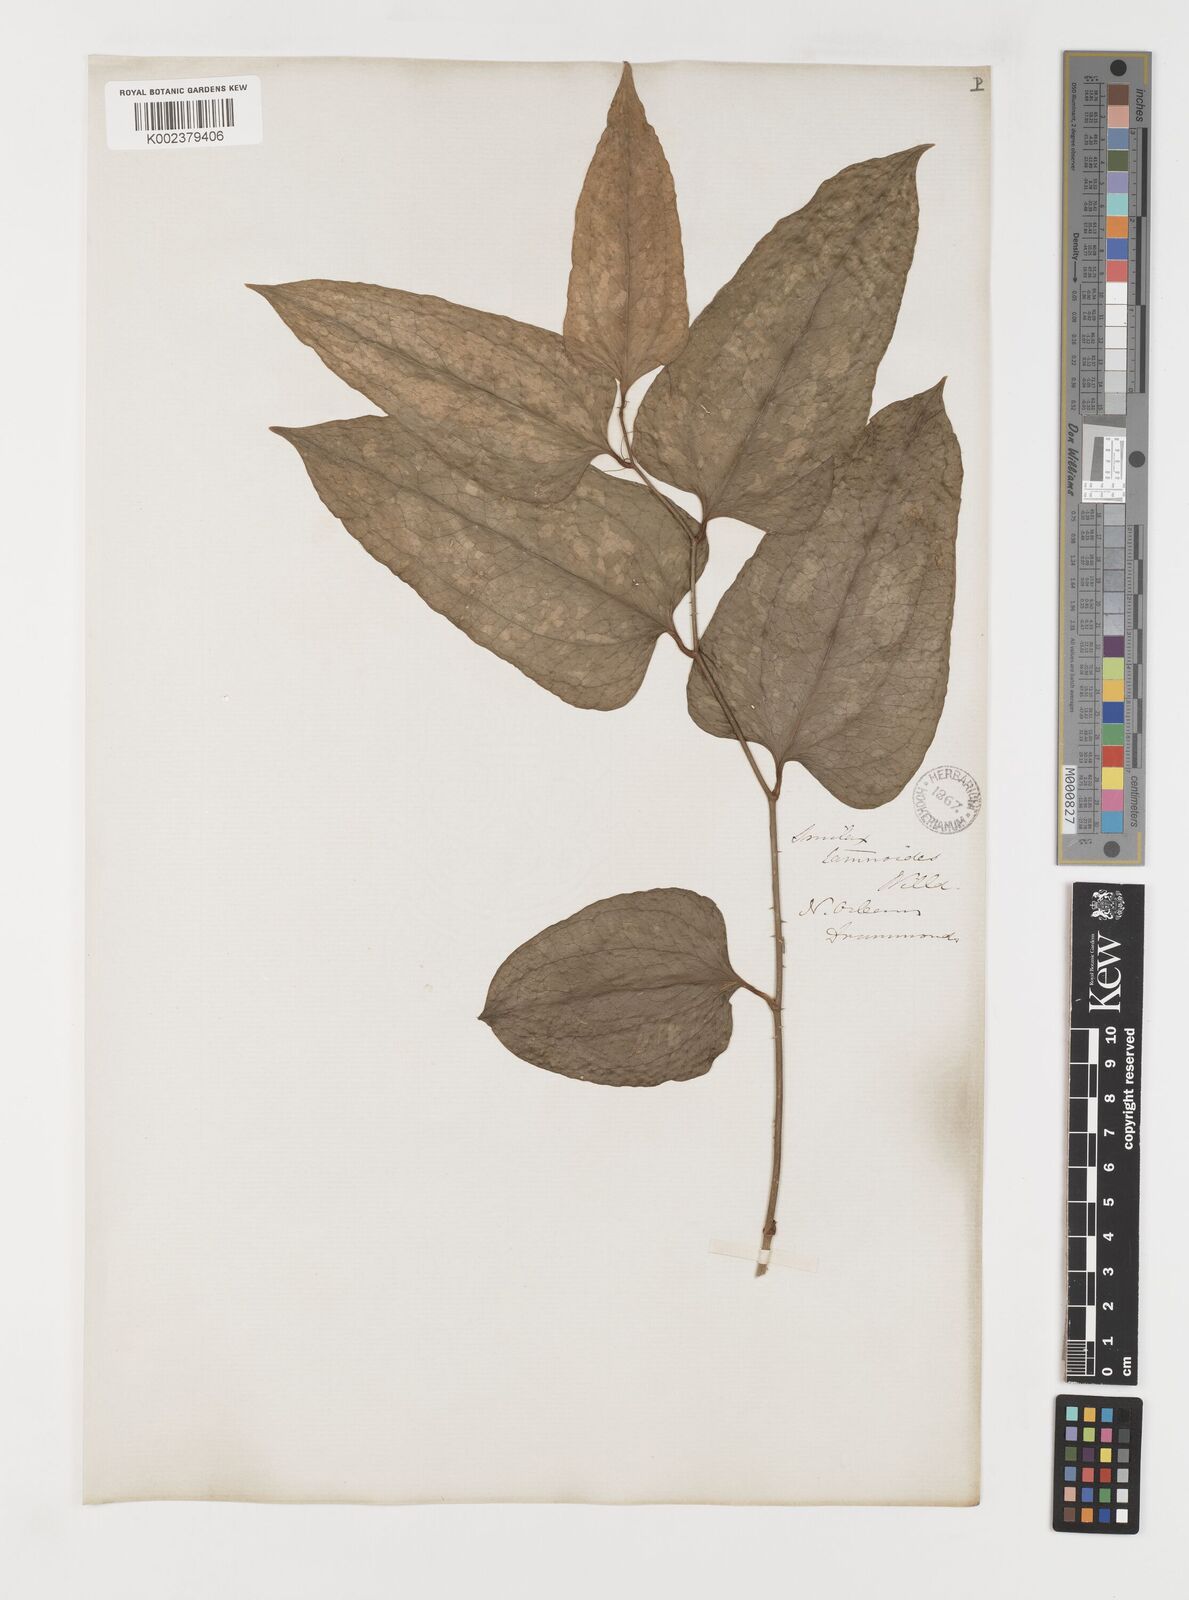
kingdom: Plantae
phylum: Tracheophyta
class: Liliopsida
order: Liliales
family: Smilacaceae
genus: Smilax
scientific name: Smilax pseudochina
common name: False chinaroot
